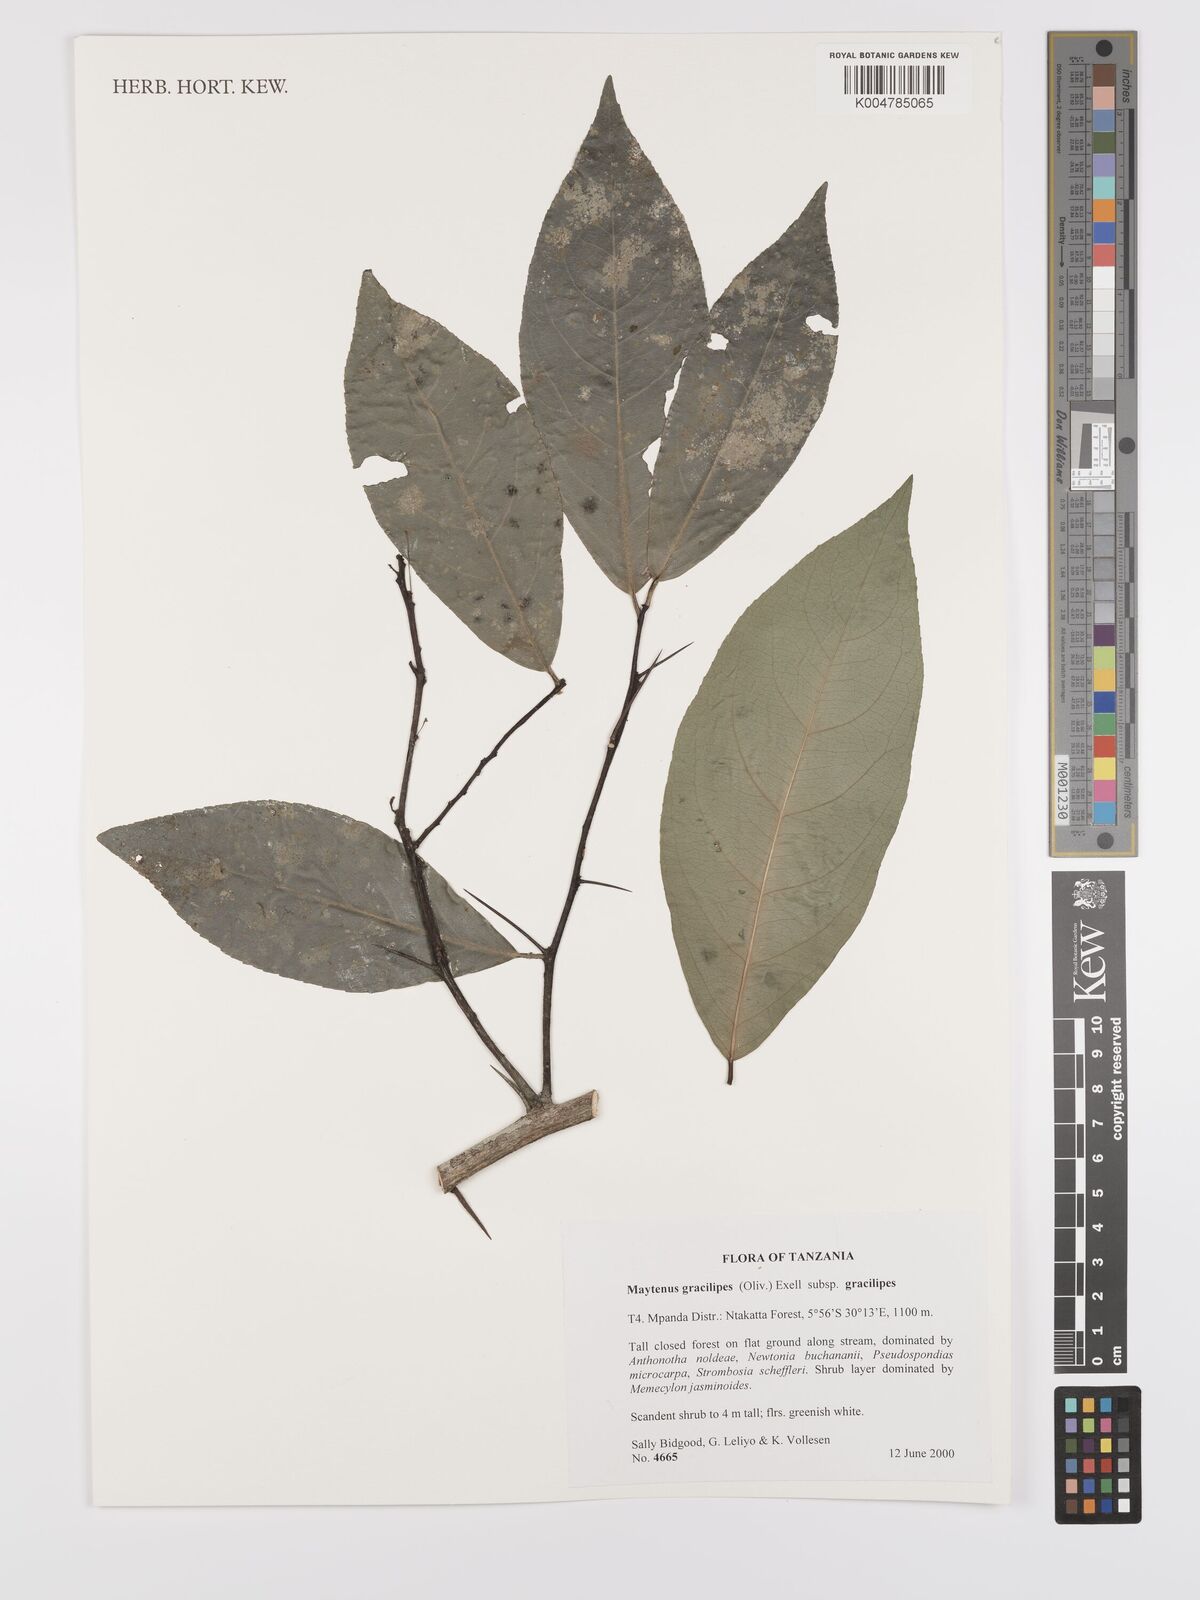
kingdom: Plantae
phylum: Tracheophyta
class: Magnoliopsida
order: Celastrales
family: Celastraceae
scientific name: Celastraceae
